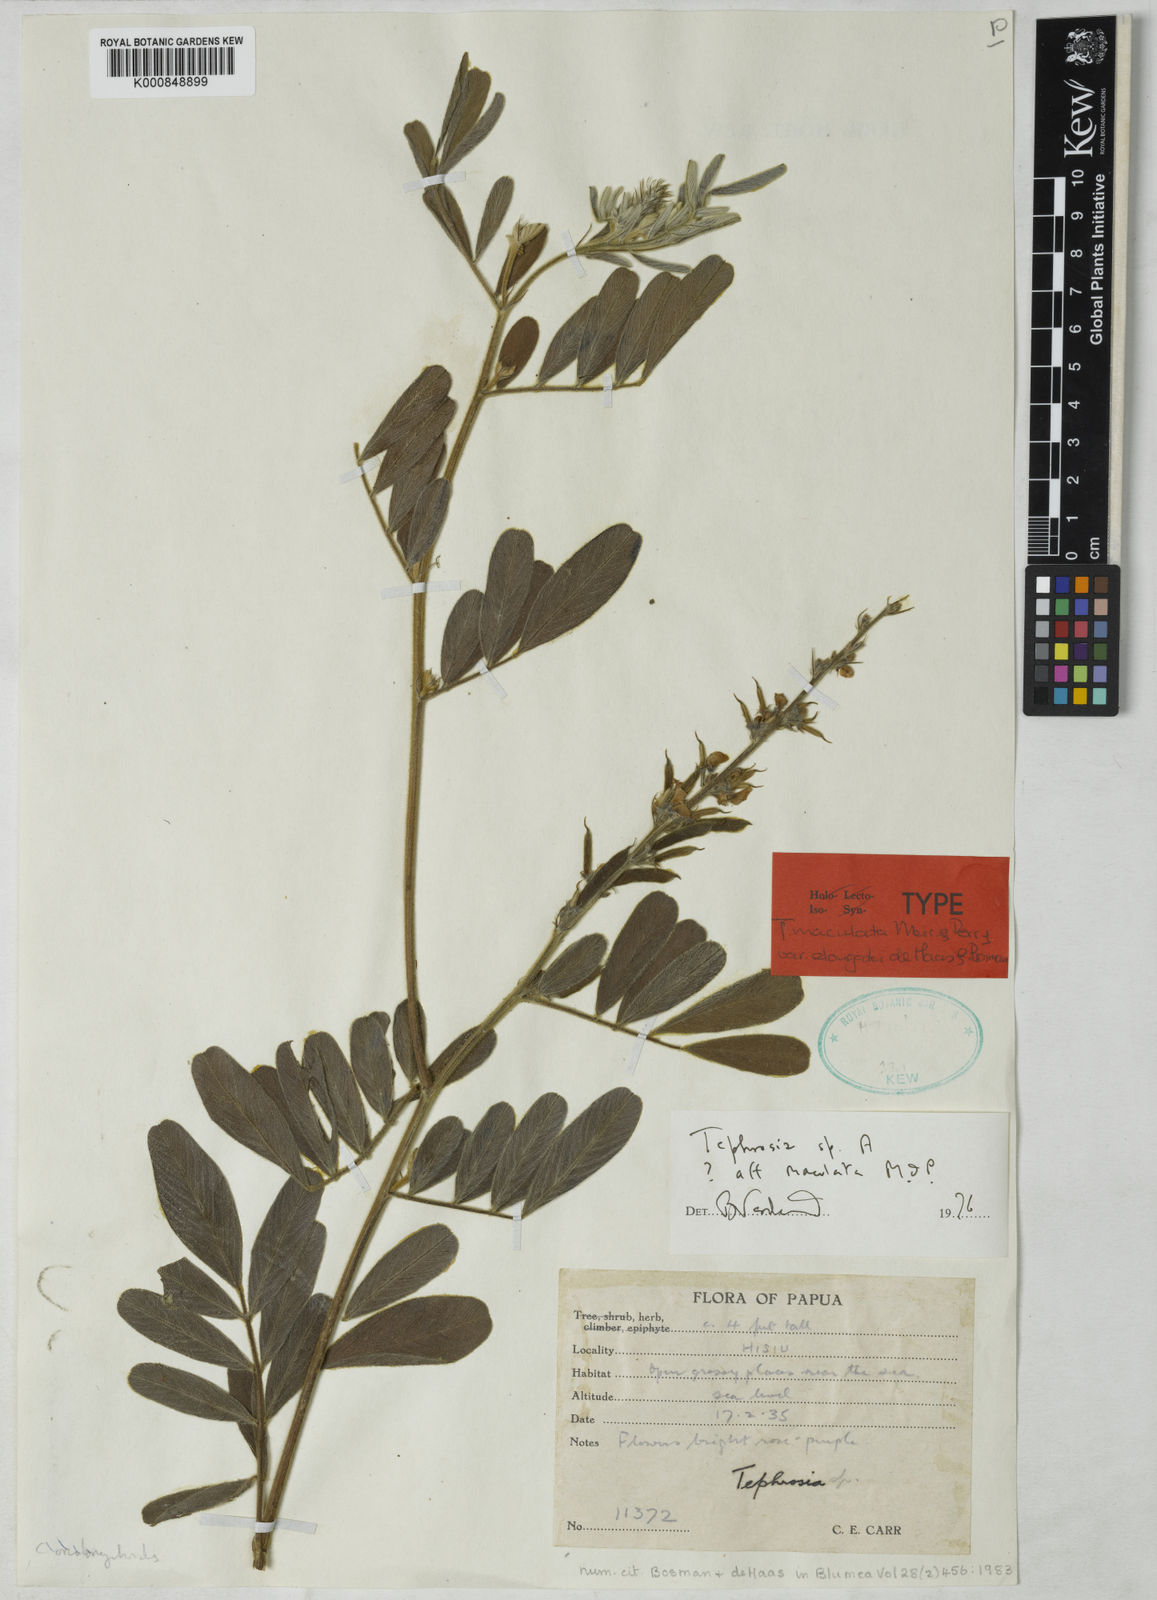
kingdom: Plantae
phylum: Tracheophyta
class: Magnoliopsida
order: Fabales
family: Fabaceae
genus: Tephrosia
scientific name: Tephrosia maculata
